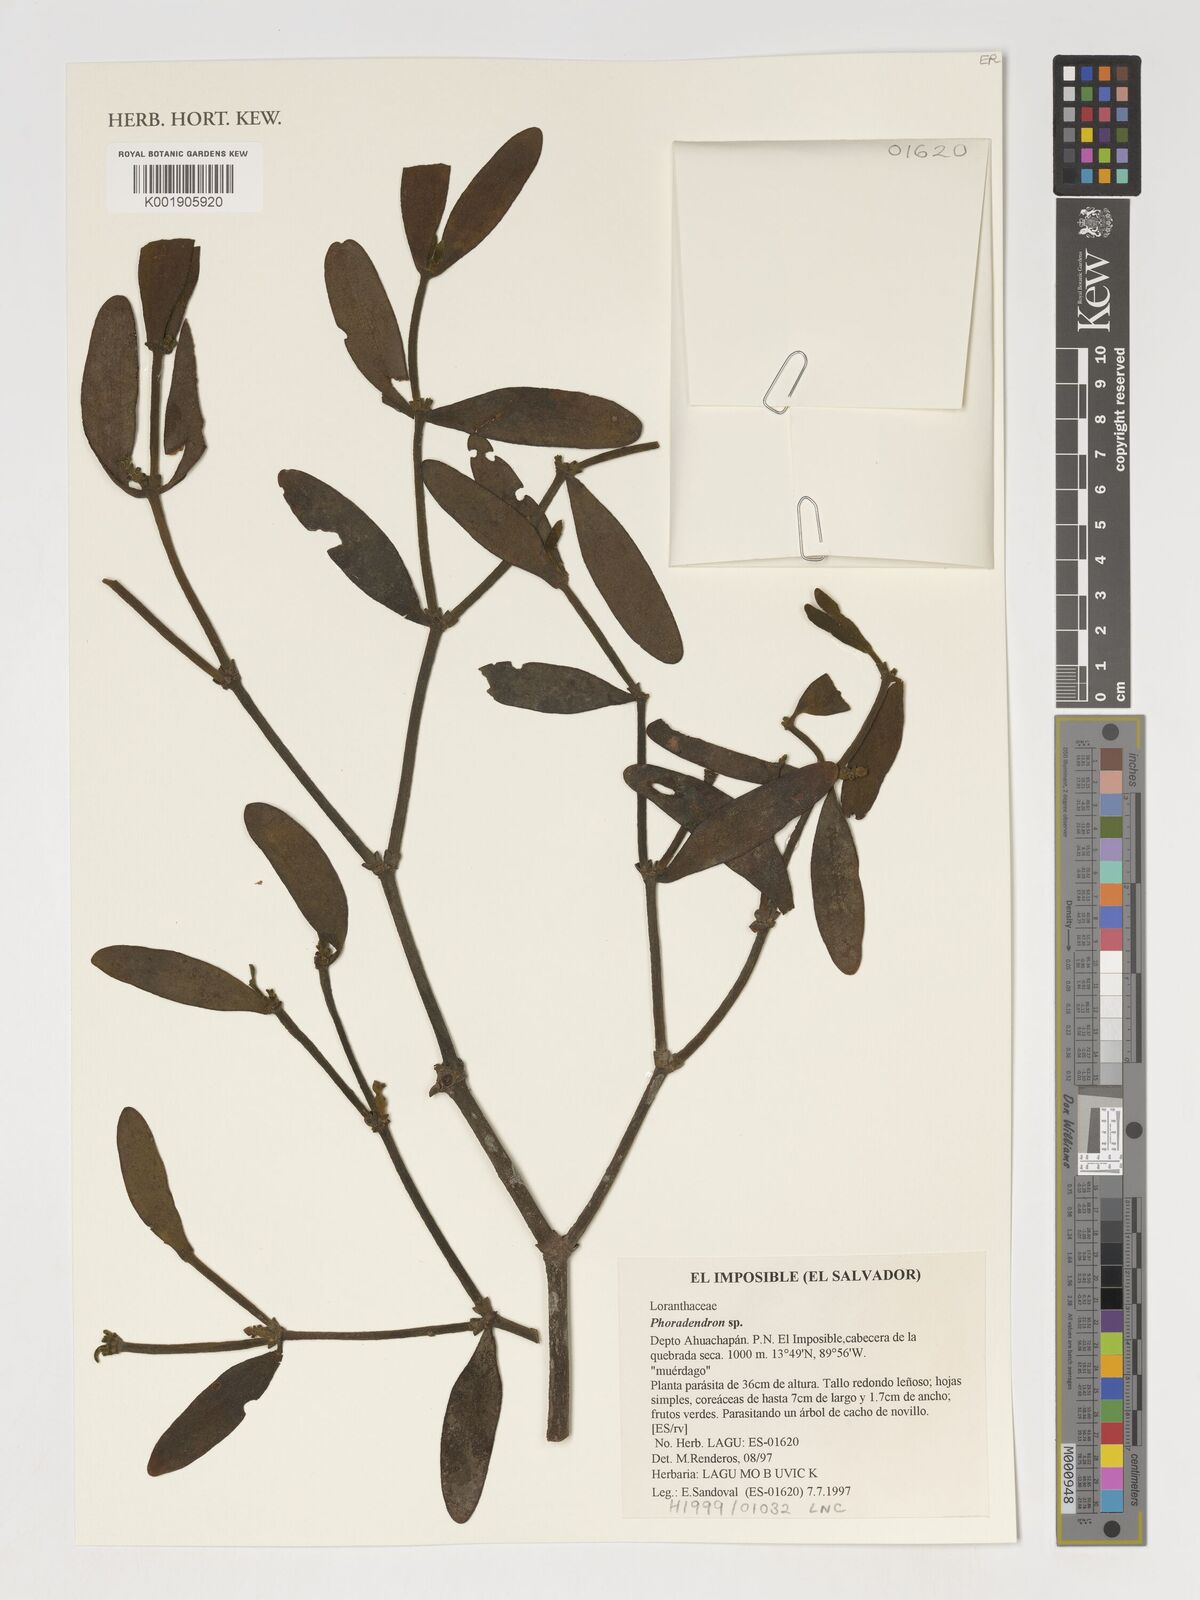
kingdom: Plantae
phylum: Tracheophyta
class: Magnoliopsida
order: Santalales
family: Viscaceae
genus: Phoradendron
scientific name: Phoradendron
